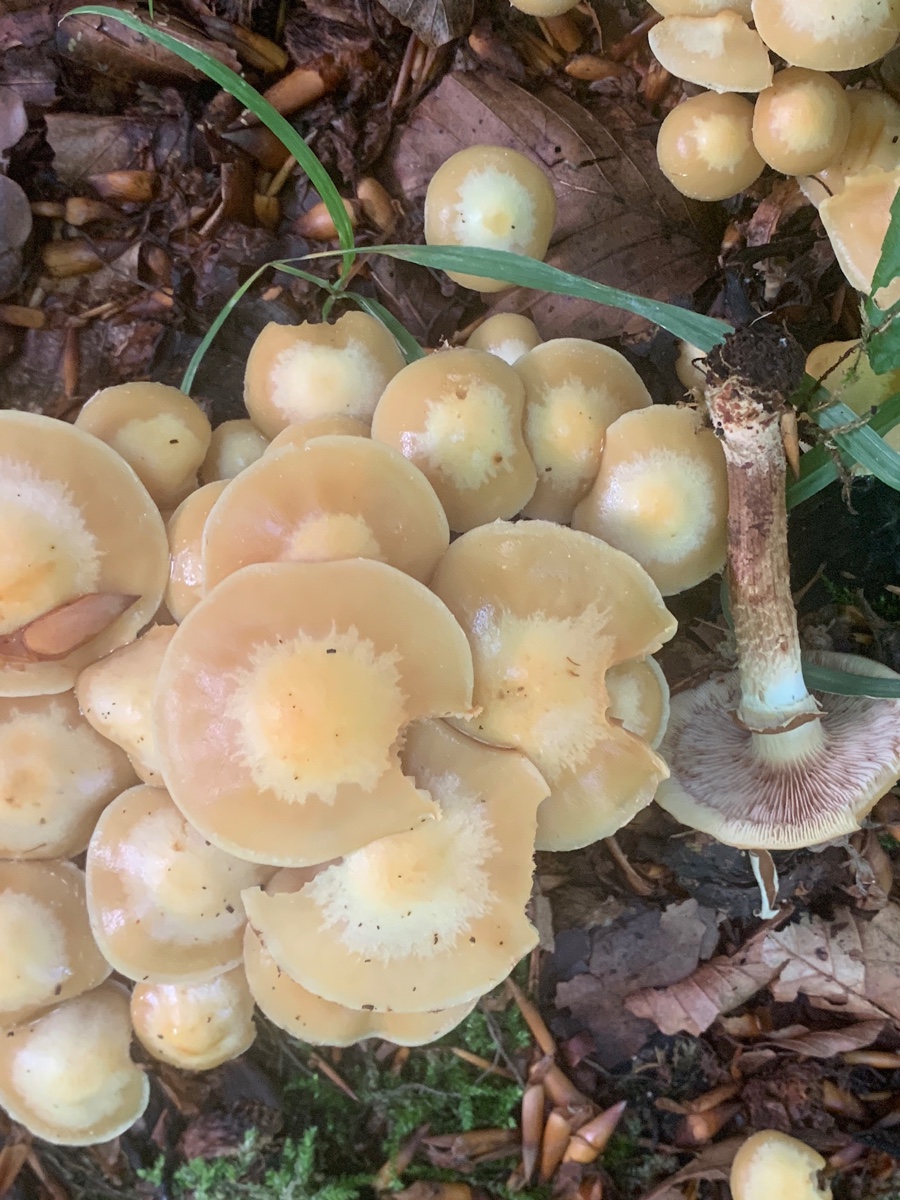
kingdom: Fungi
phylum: Basidiomycota
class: Agaricomycetes
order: Agaricales
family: Strophariaceae
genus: Kuehneromyces
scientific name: Kuehneromyces mutabilis
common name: foranderlig skælhat
